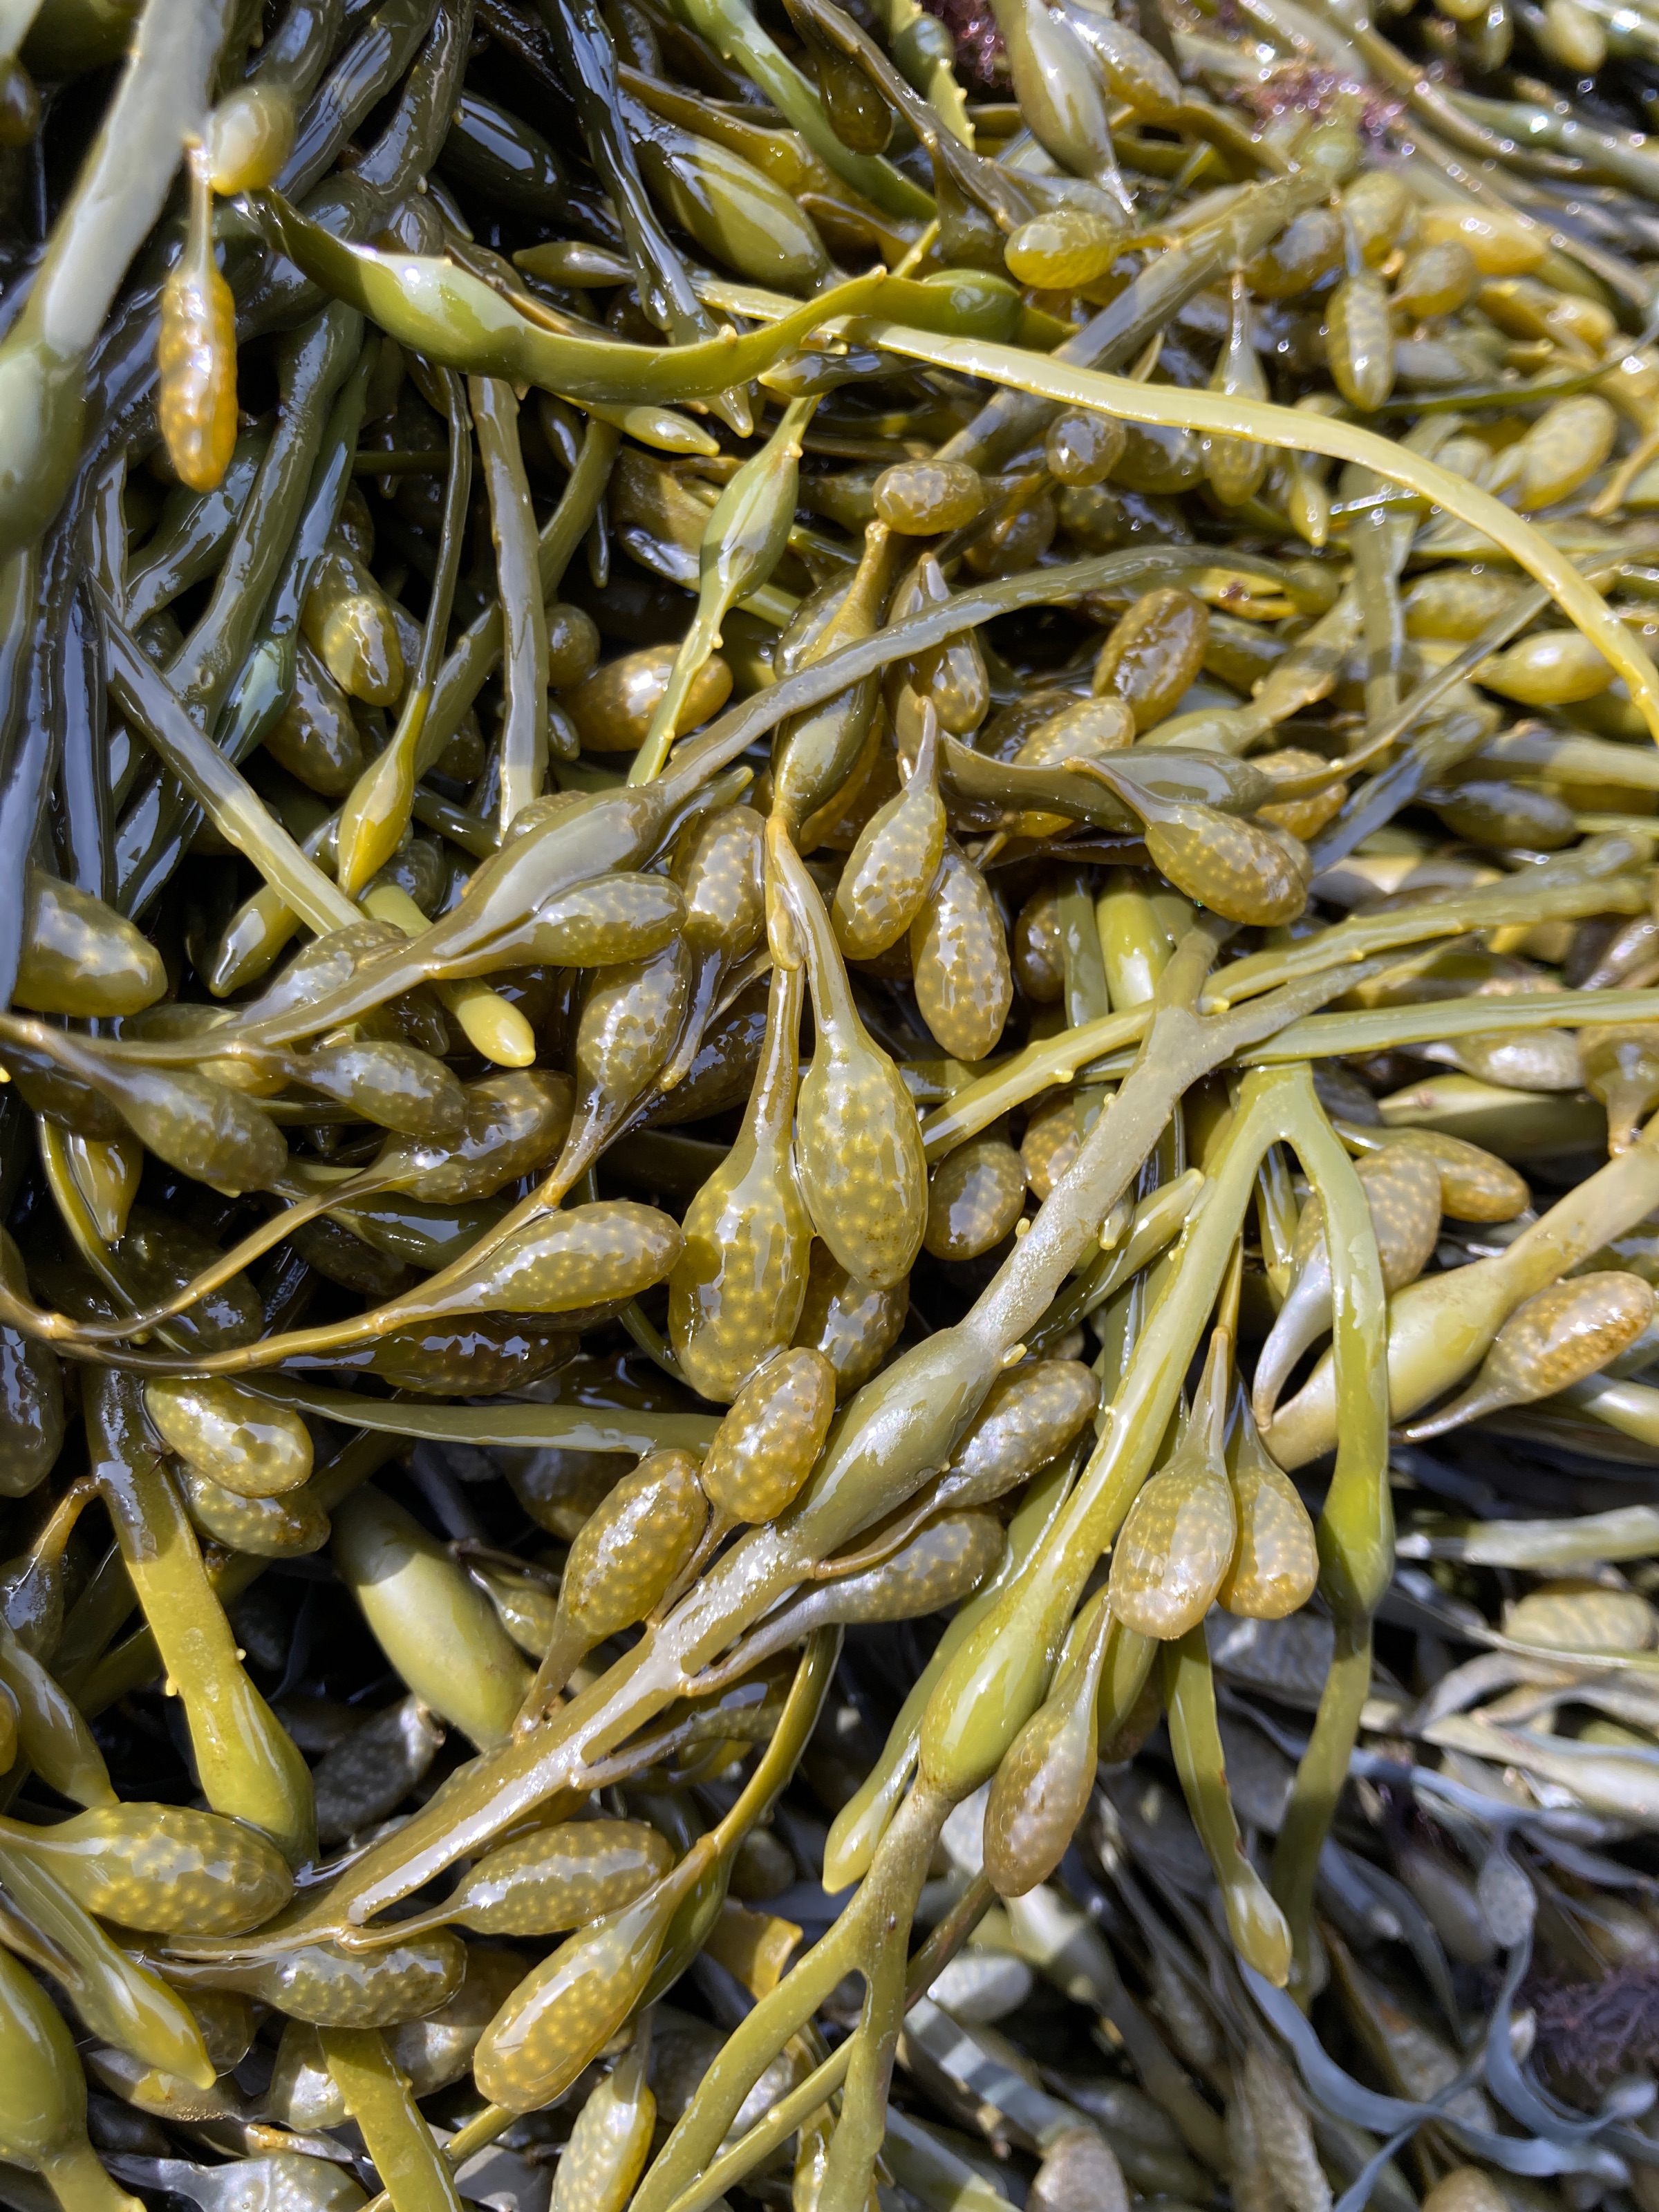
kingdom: Chromista
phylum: Ochrophyta
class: Phaeophyceae
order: Fucales
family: Fucaceae
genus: Ascophyllum
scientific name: Ascophyllum nodosum
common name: Rockweed
